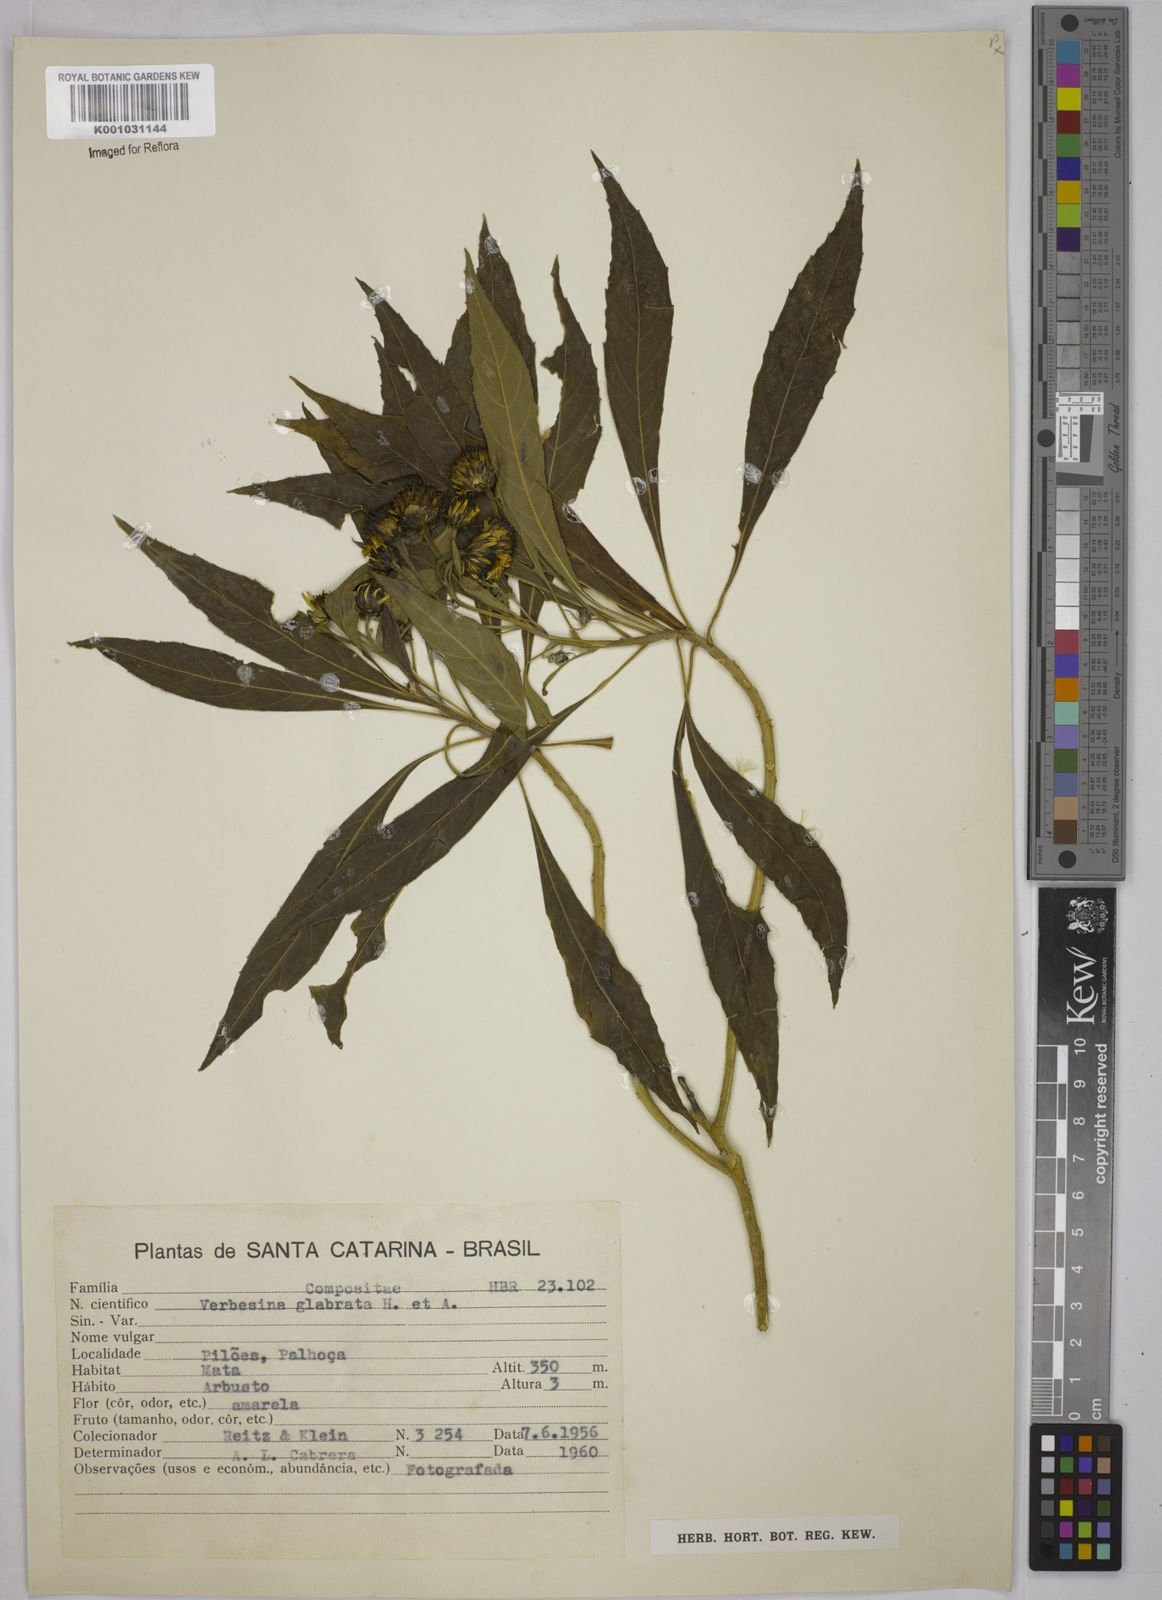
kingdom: Plantae
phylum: Tracheophyta
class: Magnoliopsida
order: Asterales
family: Asteraceae
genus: Verbesina
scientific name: Verbesina glabrata
